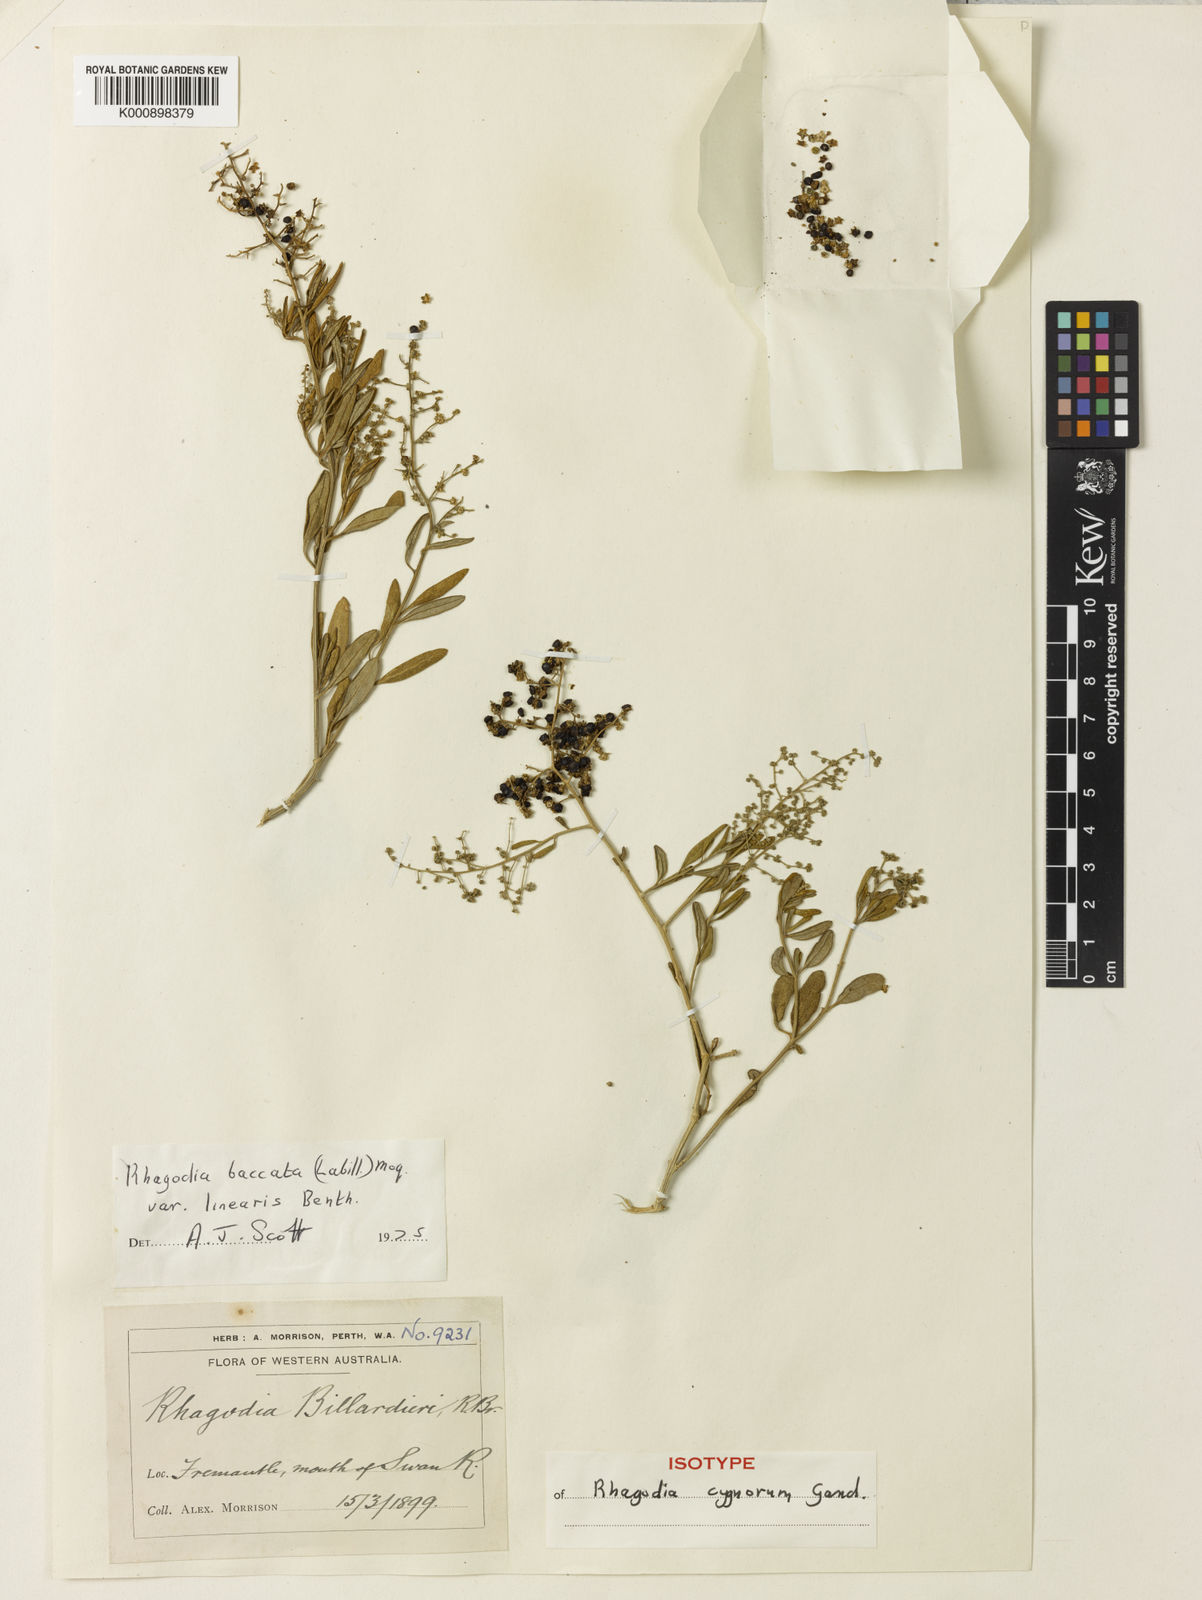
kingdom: Plantae
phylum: Tracheophyta
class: Magnoliopsida
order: Caryophyllales
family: Amaranthaceae
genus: Chenopodium
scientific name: Chenopodium baccatum
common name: Coastal-saltbush
